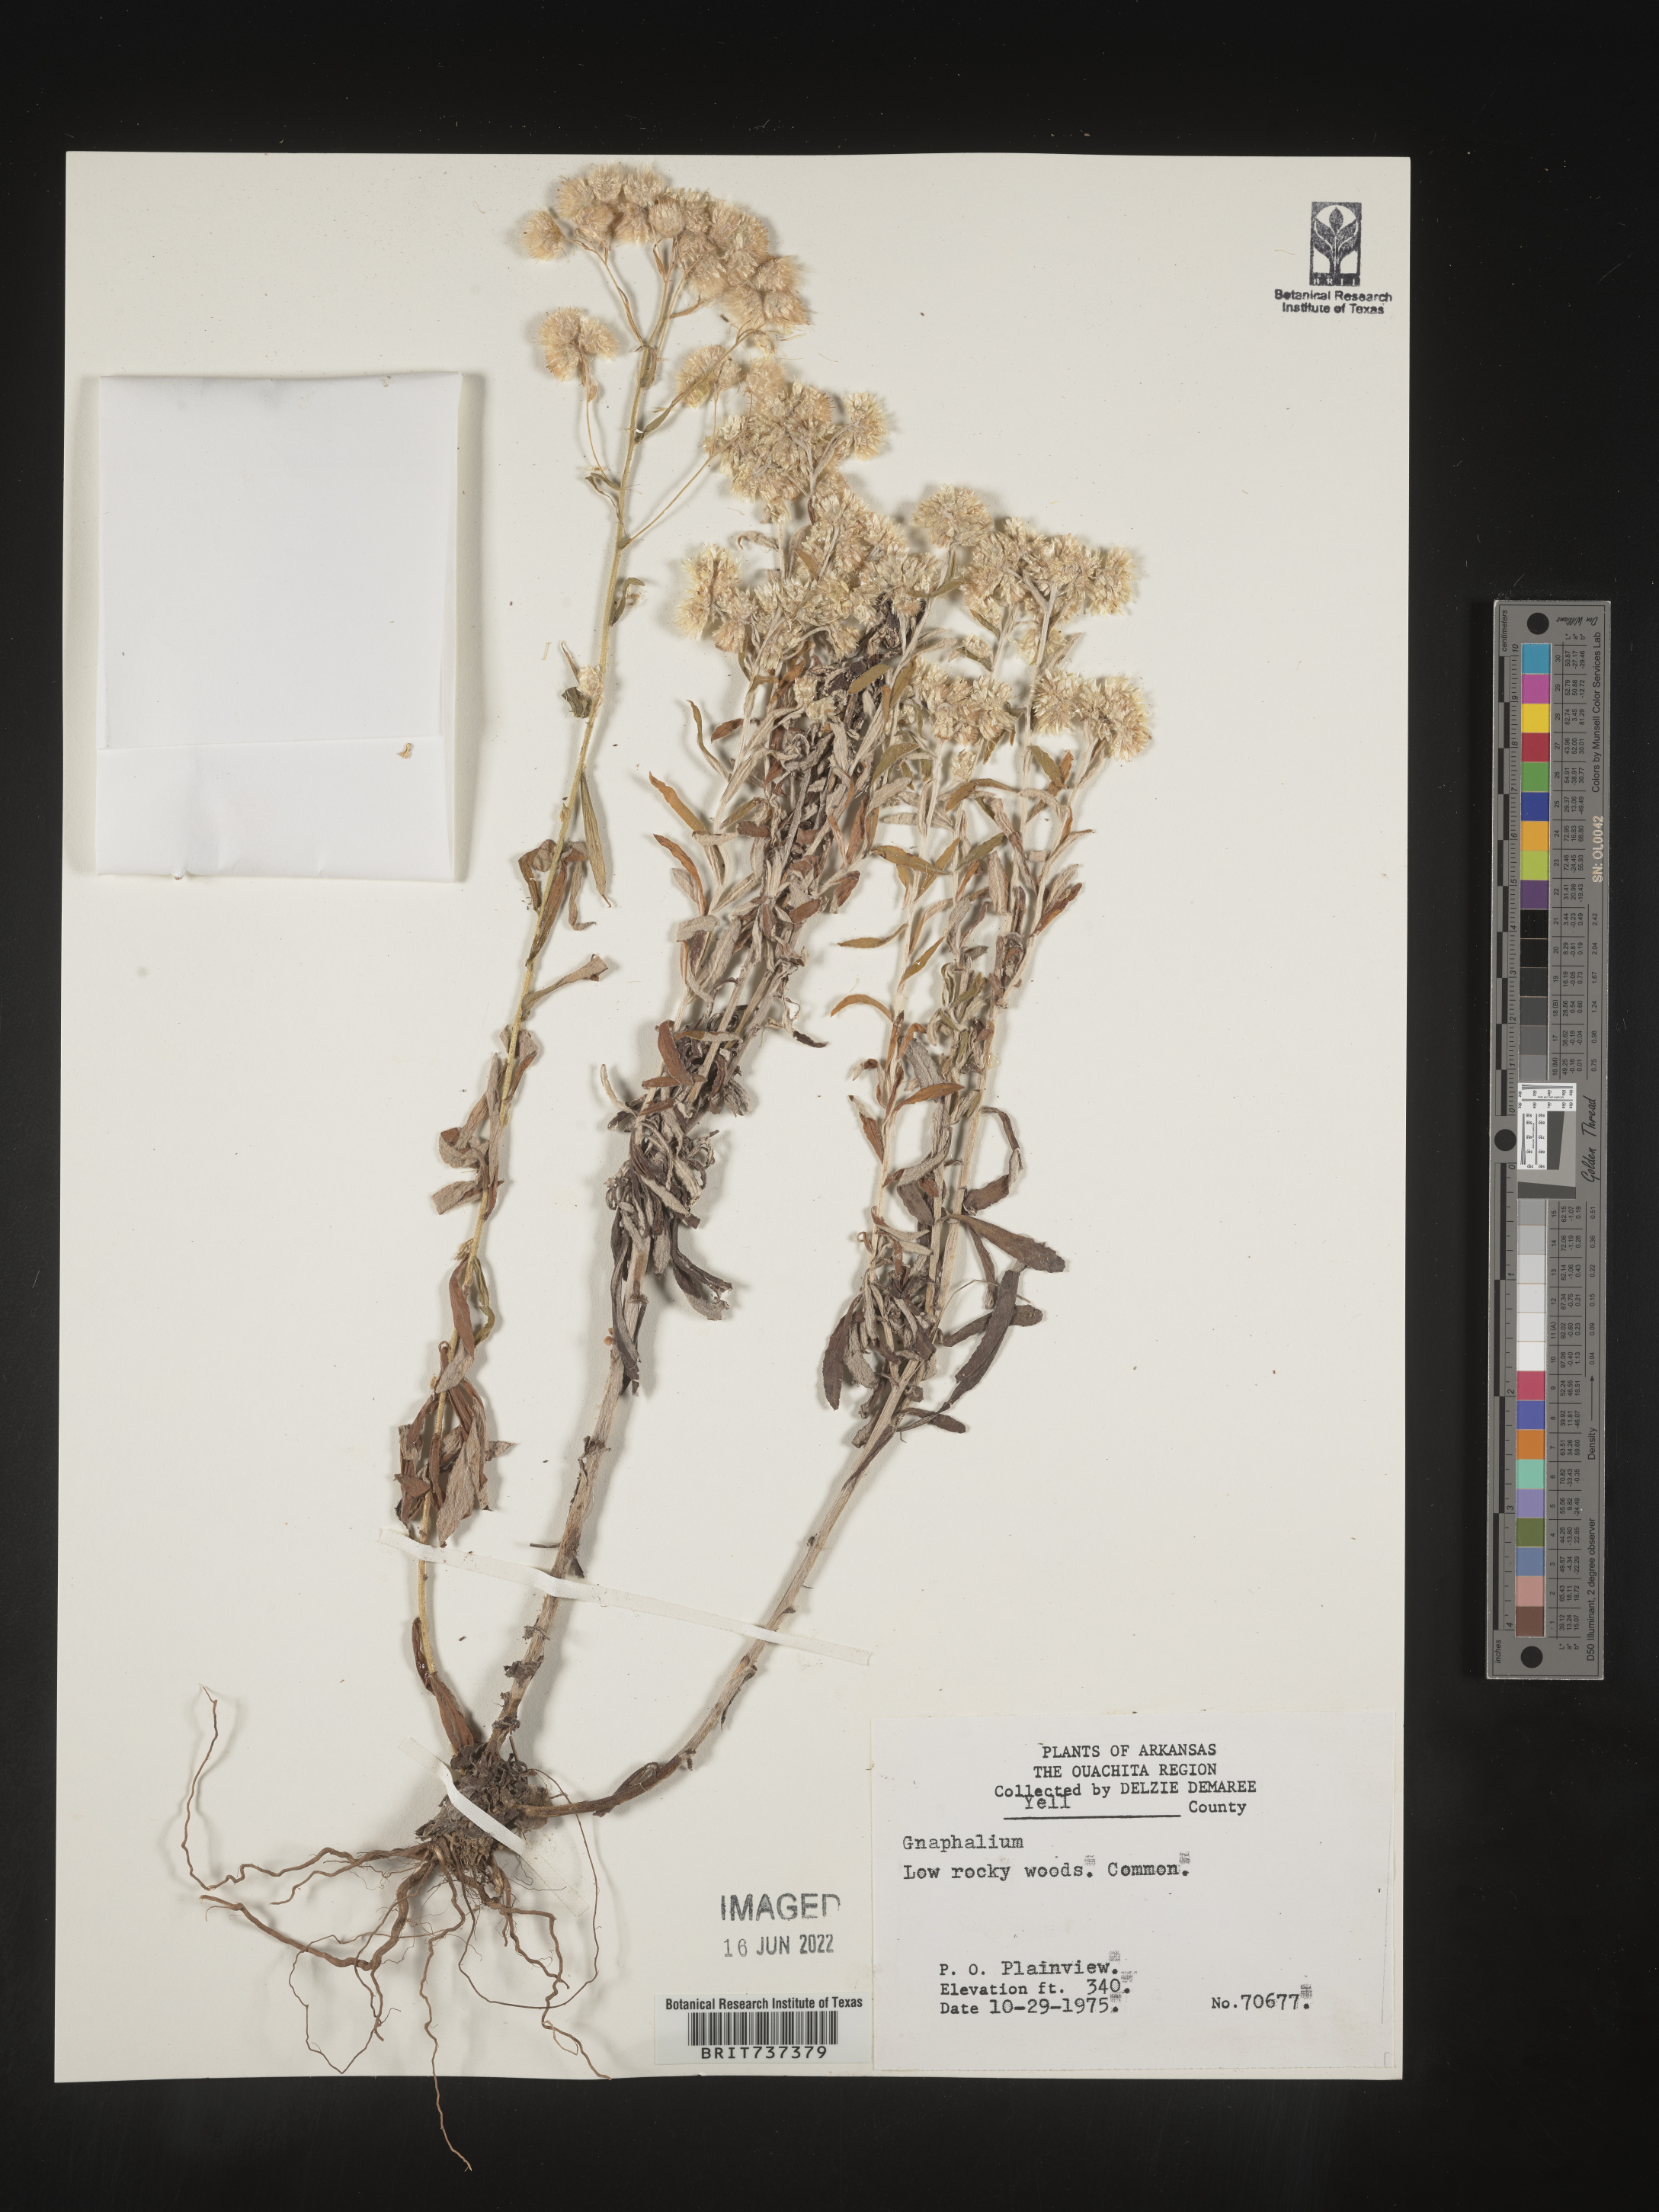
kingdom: Plantae
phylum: Tracheophyta
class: Magnoliopsida
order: Asterales
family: Asteraceae
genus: Pseudognaphalium
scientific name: Pseudognaphalium helleri
